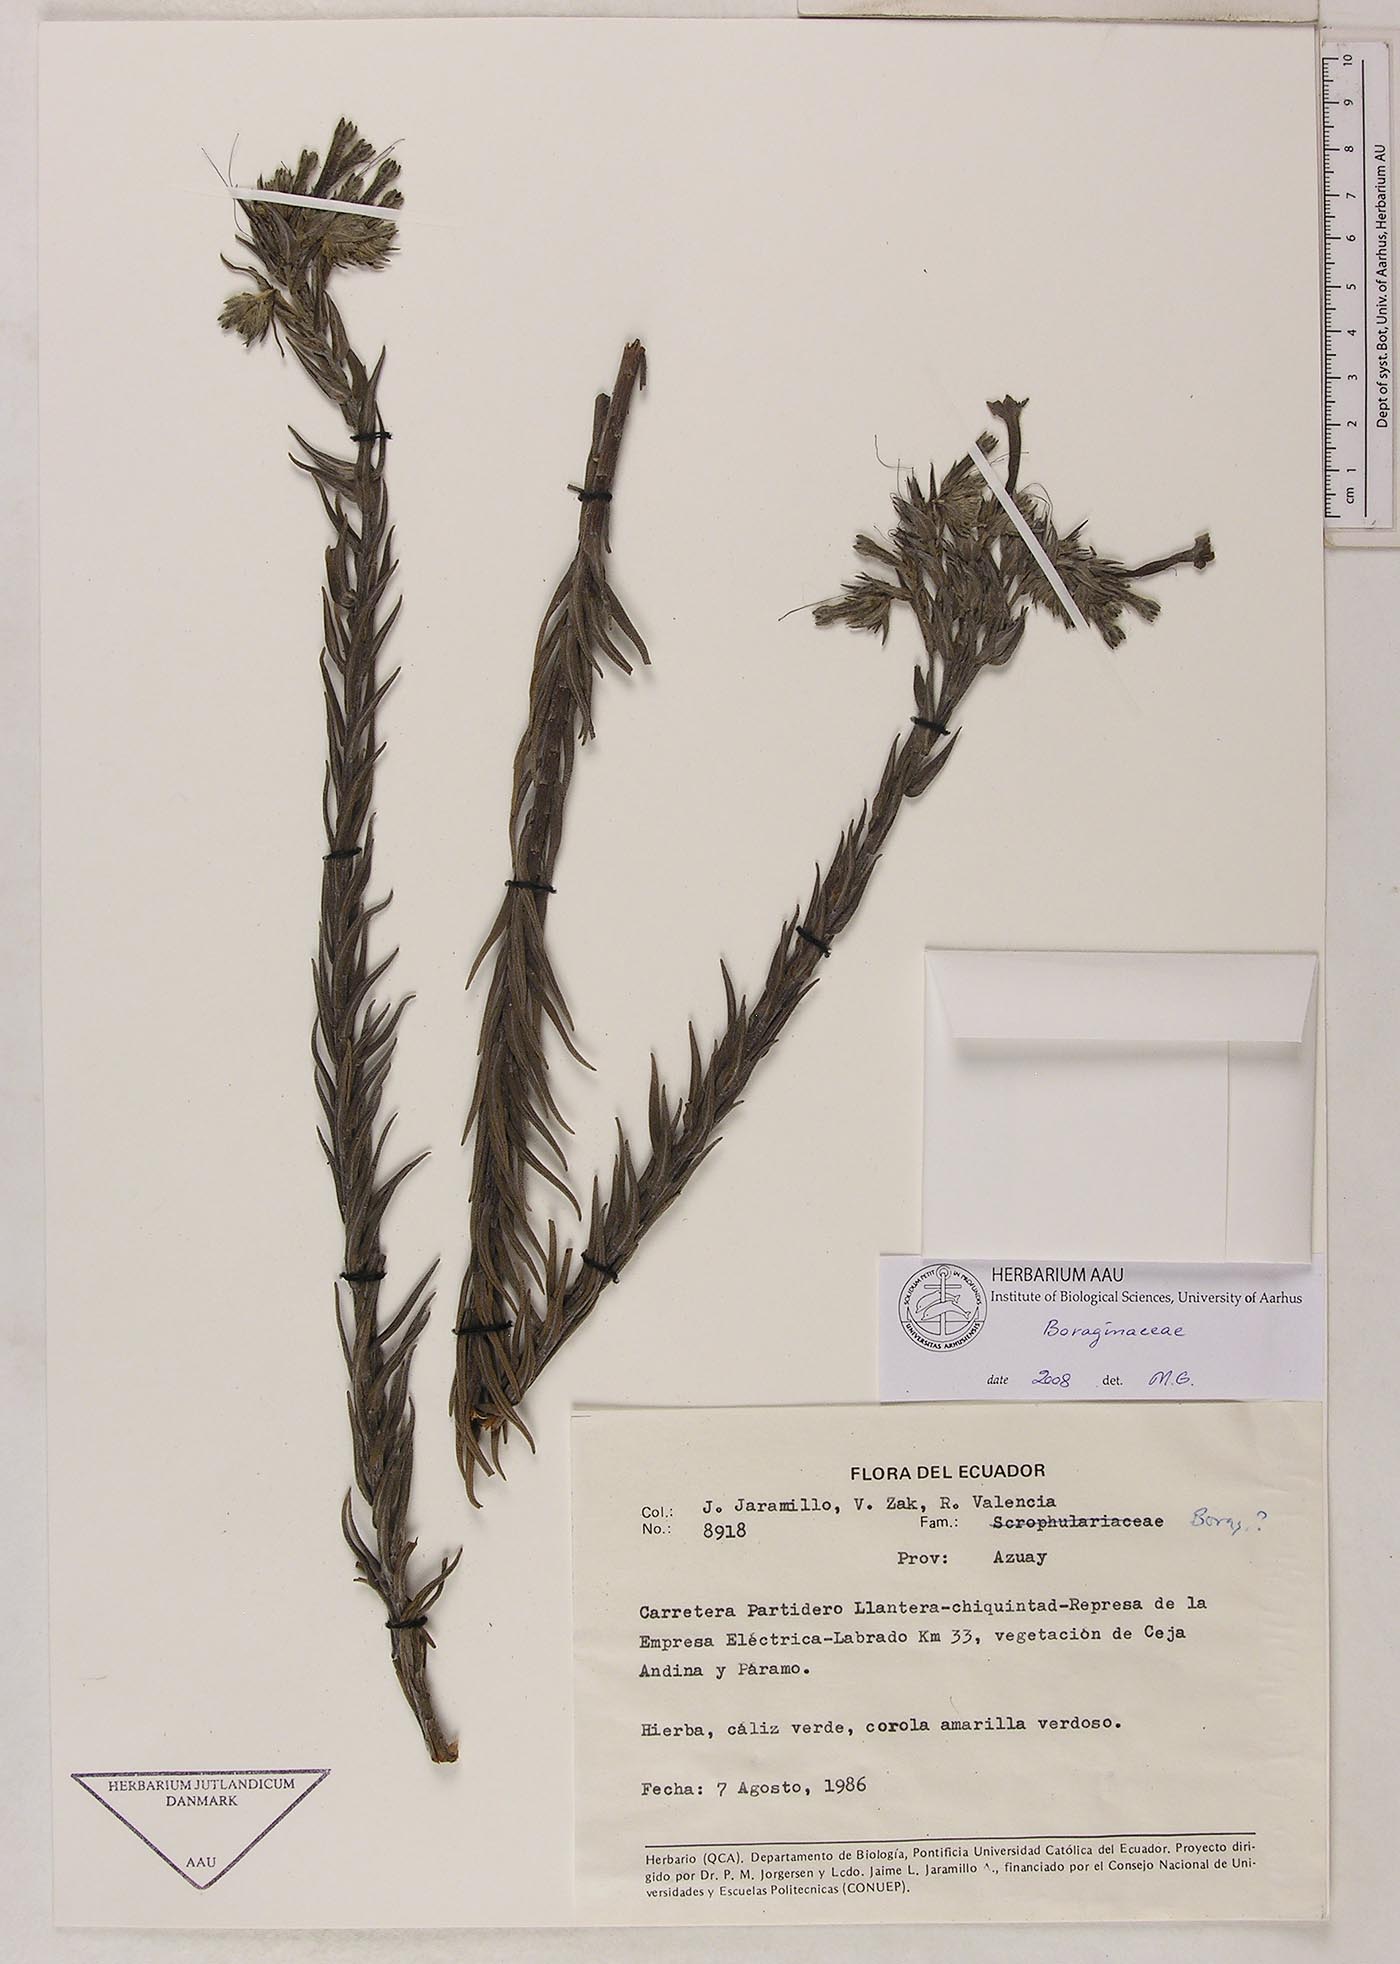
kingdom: Plantae
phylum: Tracheophyta
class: Magnoliopsida
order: Boraginales
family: Boraginaceae
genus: Lithospermum
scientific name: Lithospermum azuayense
